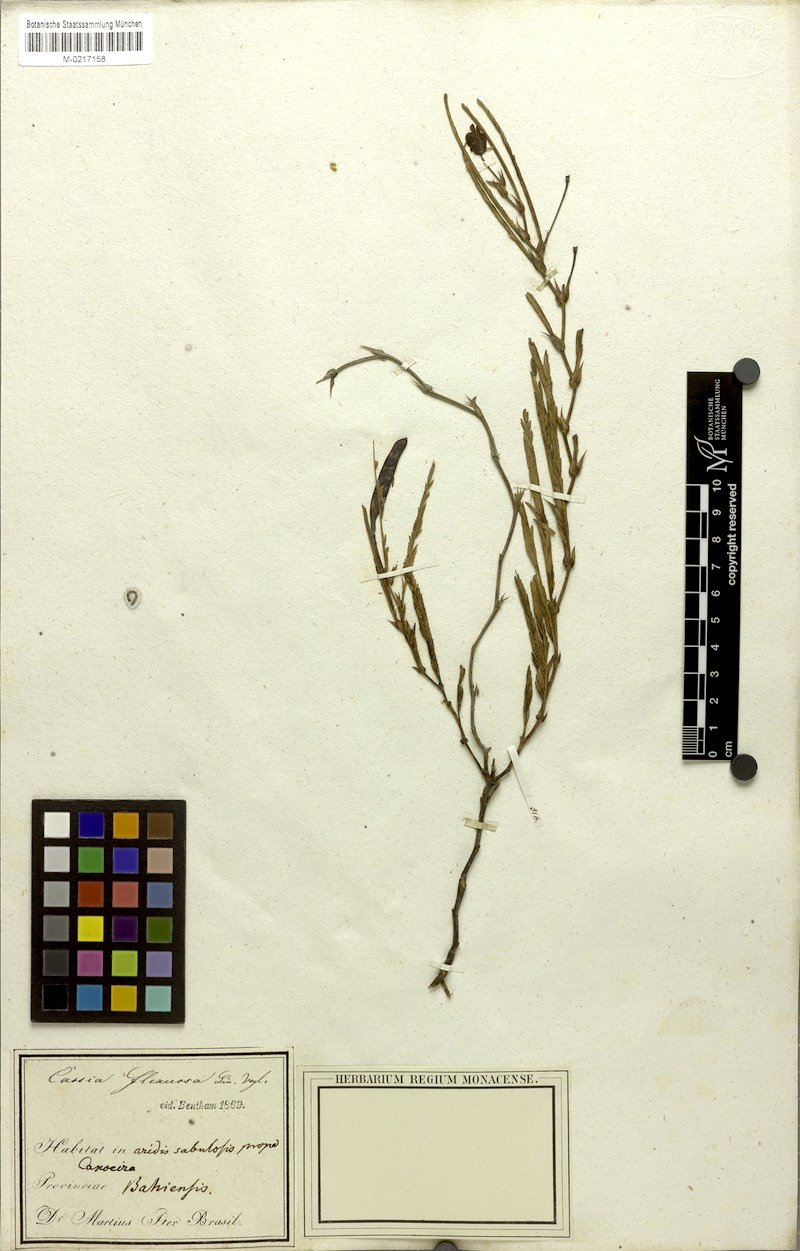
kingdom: Plantae
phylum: Tracheophyta
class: Magnoliopsida
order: Fabales
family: Fabaceae
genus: Chamaecrista
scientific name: Chamaecrista flexuosa
